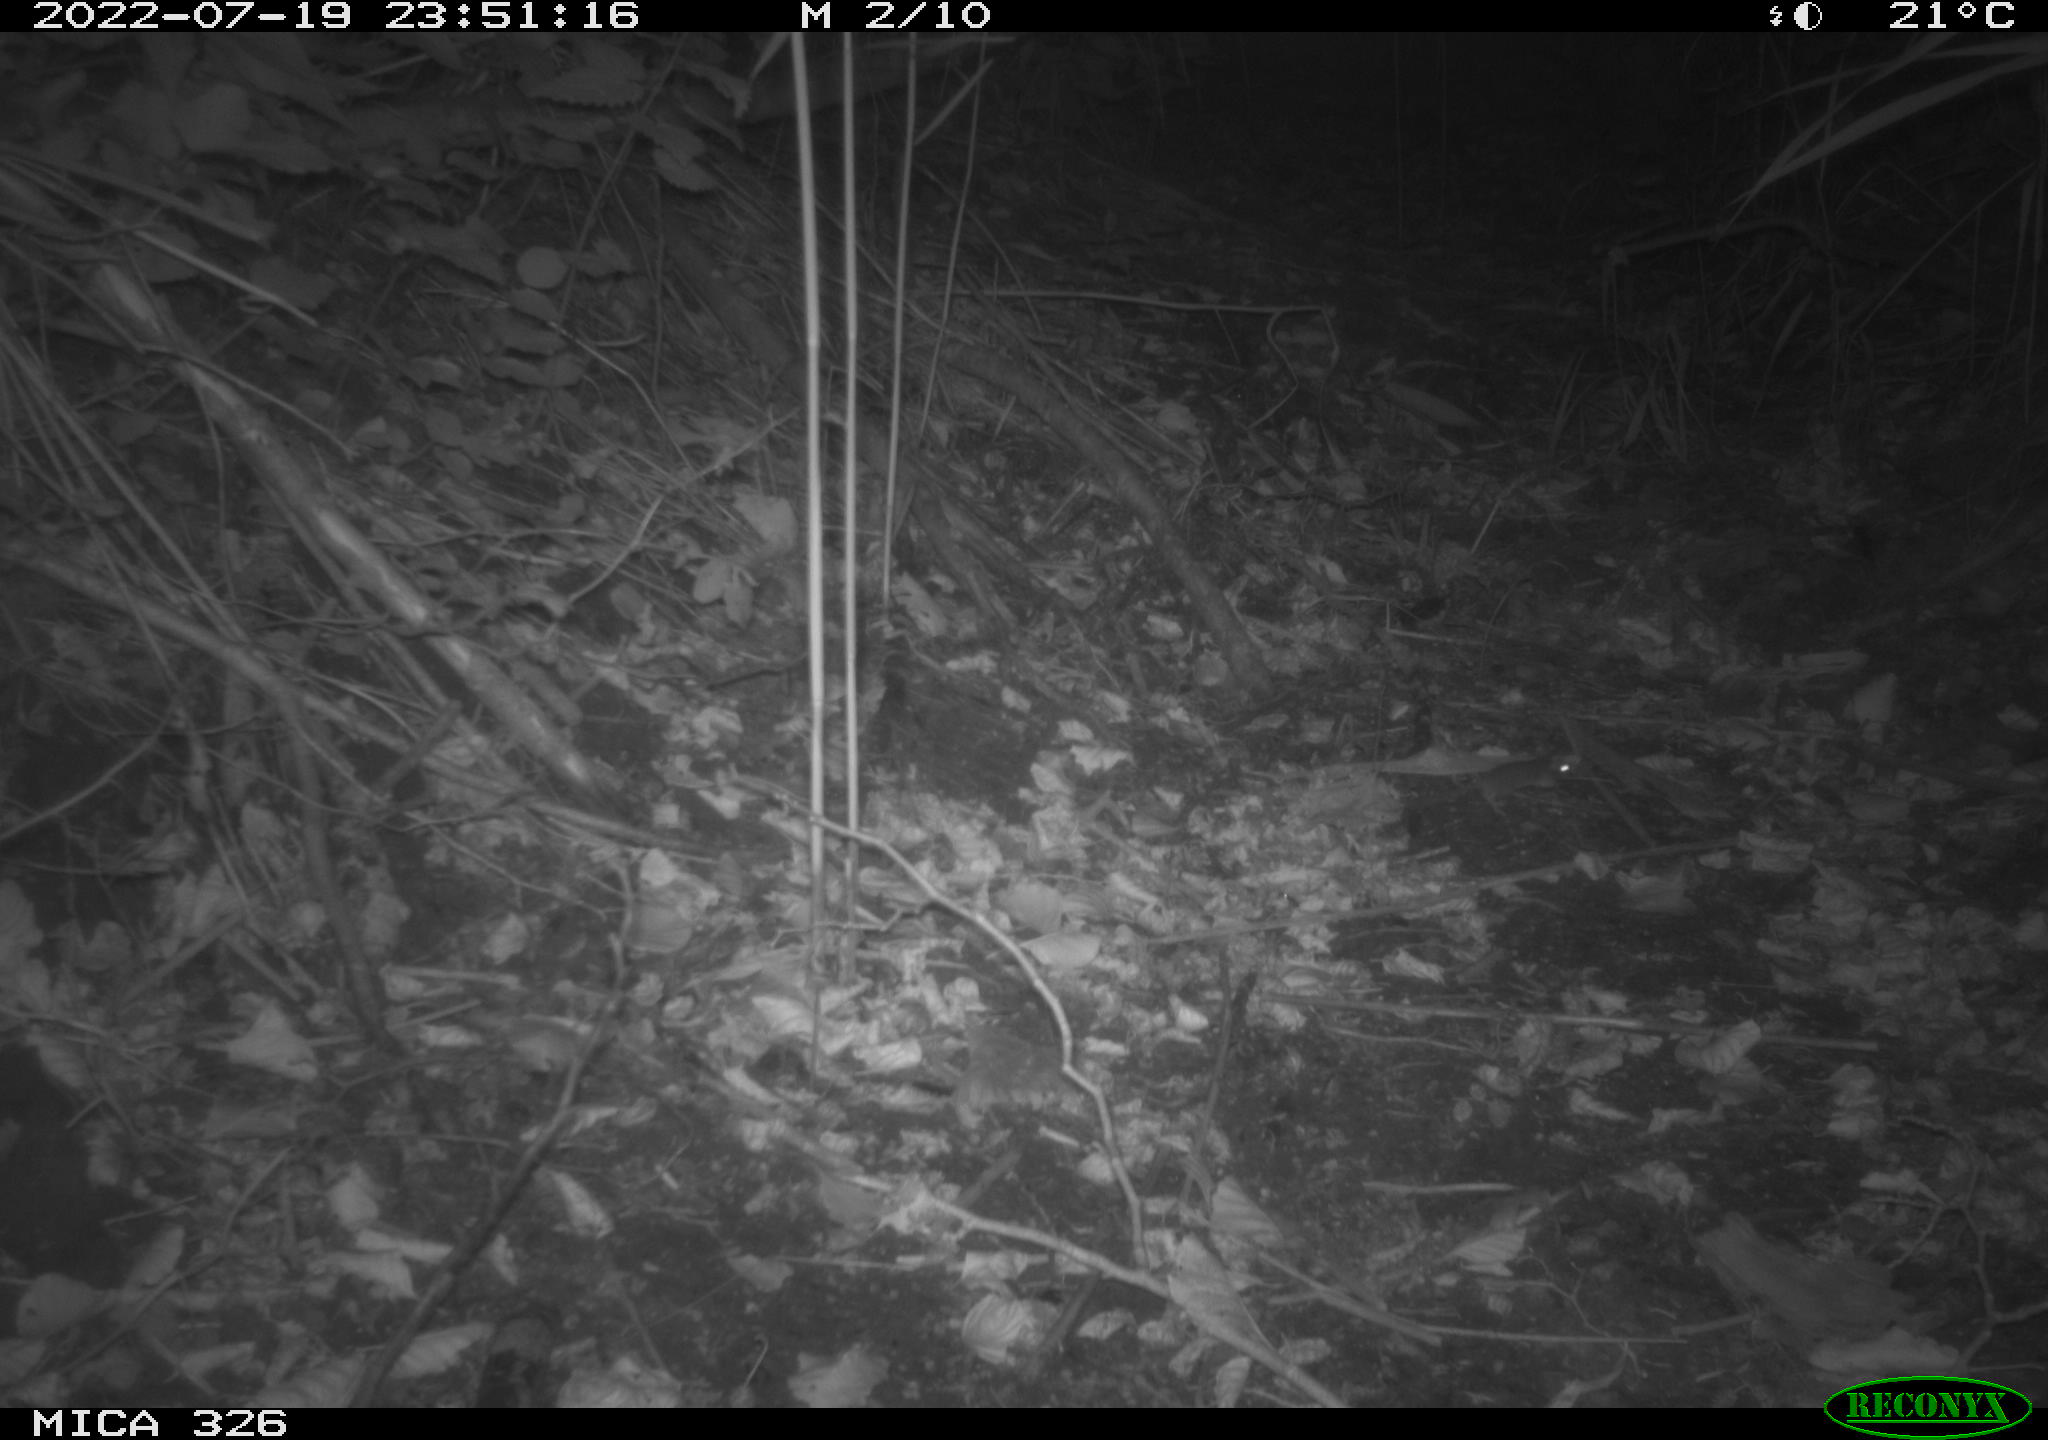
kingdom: Animalia
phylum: Chordata
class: Mammalia
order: Rodentia
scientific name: Rodentia
